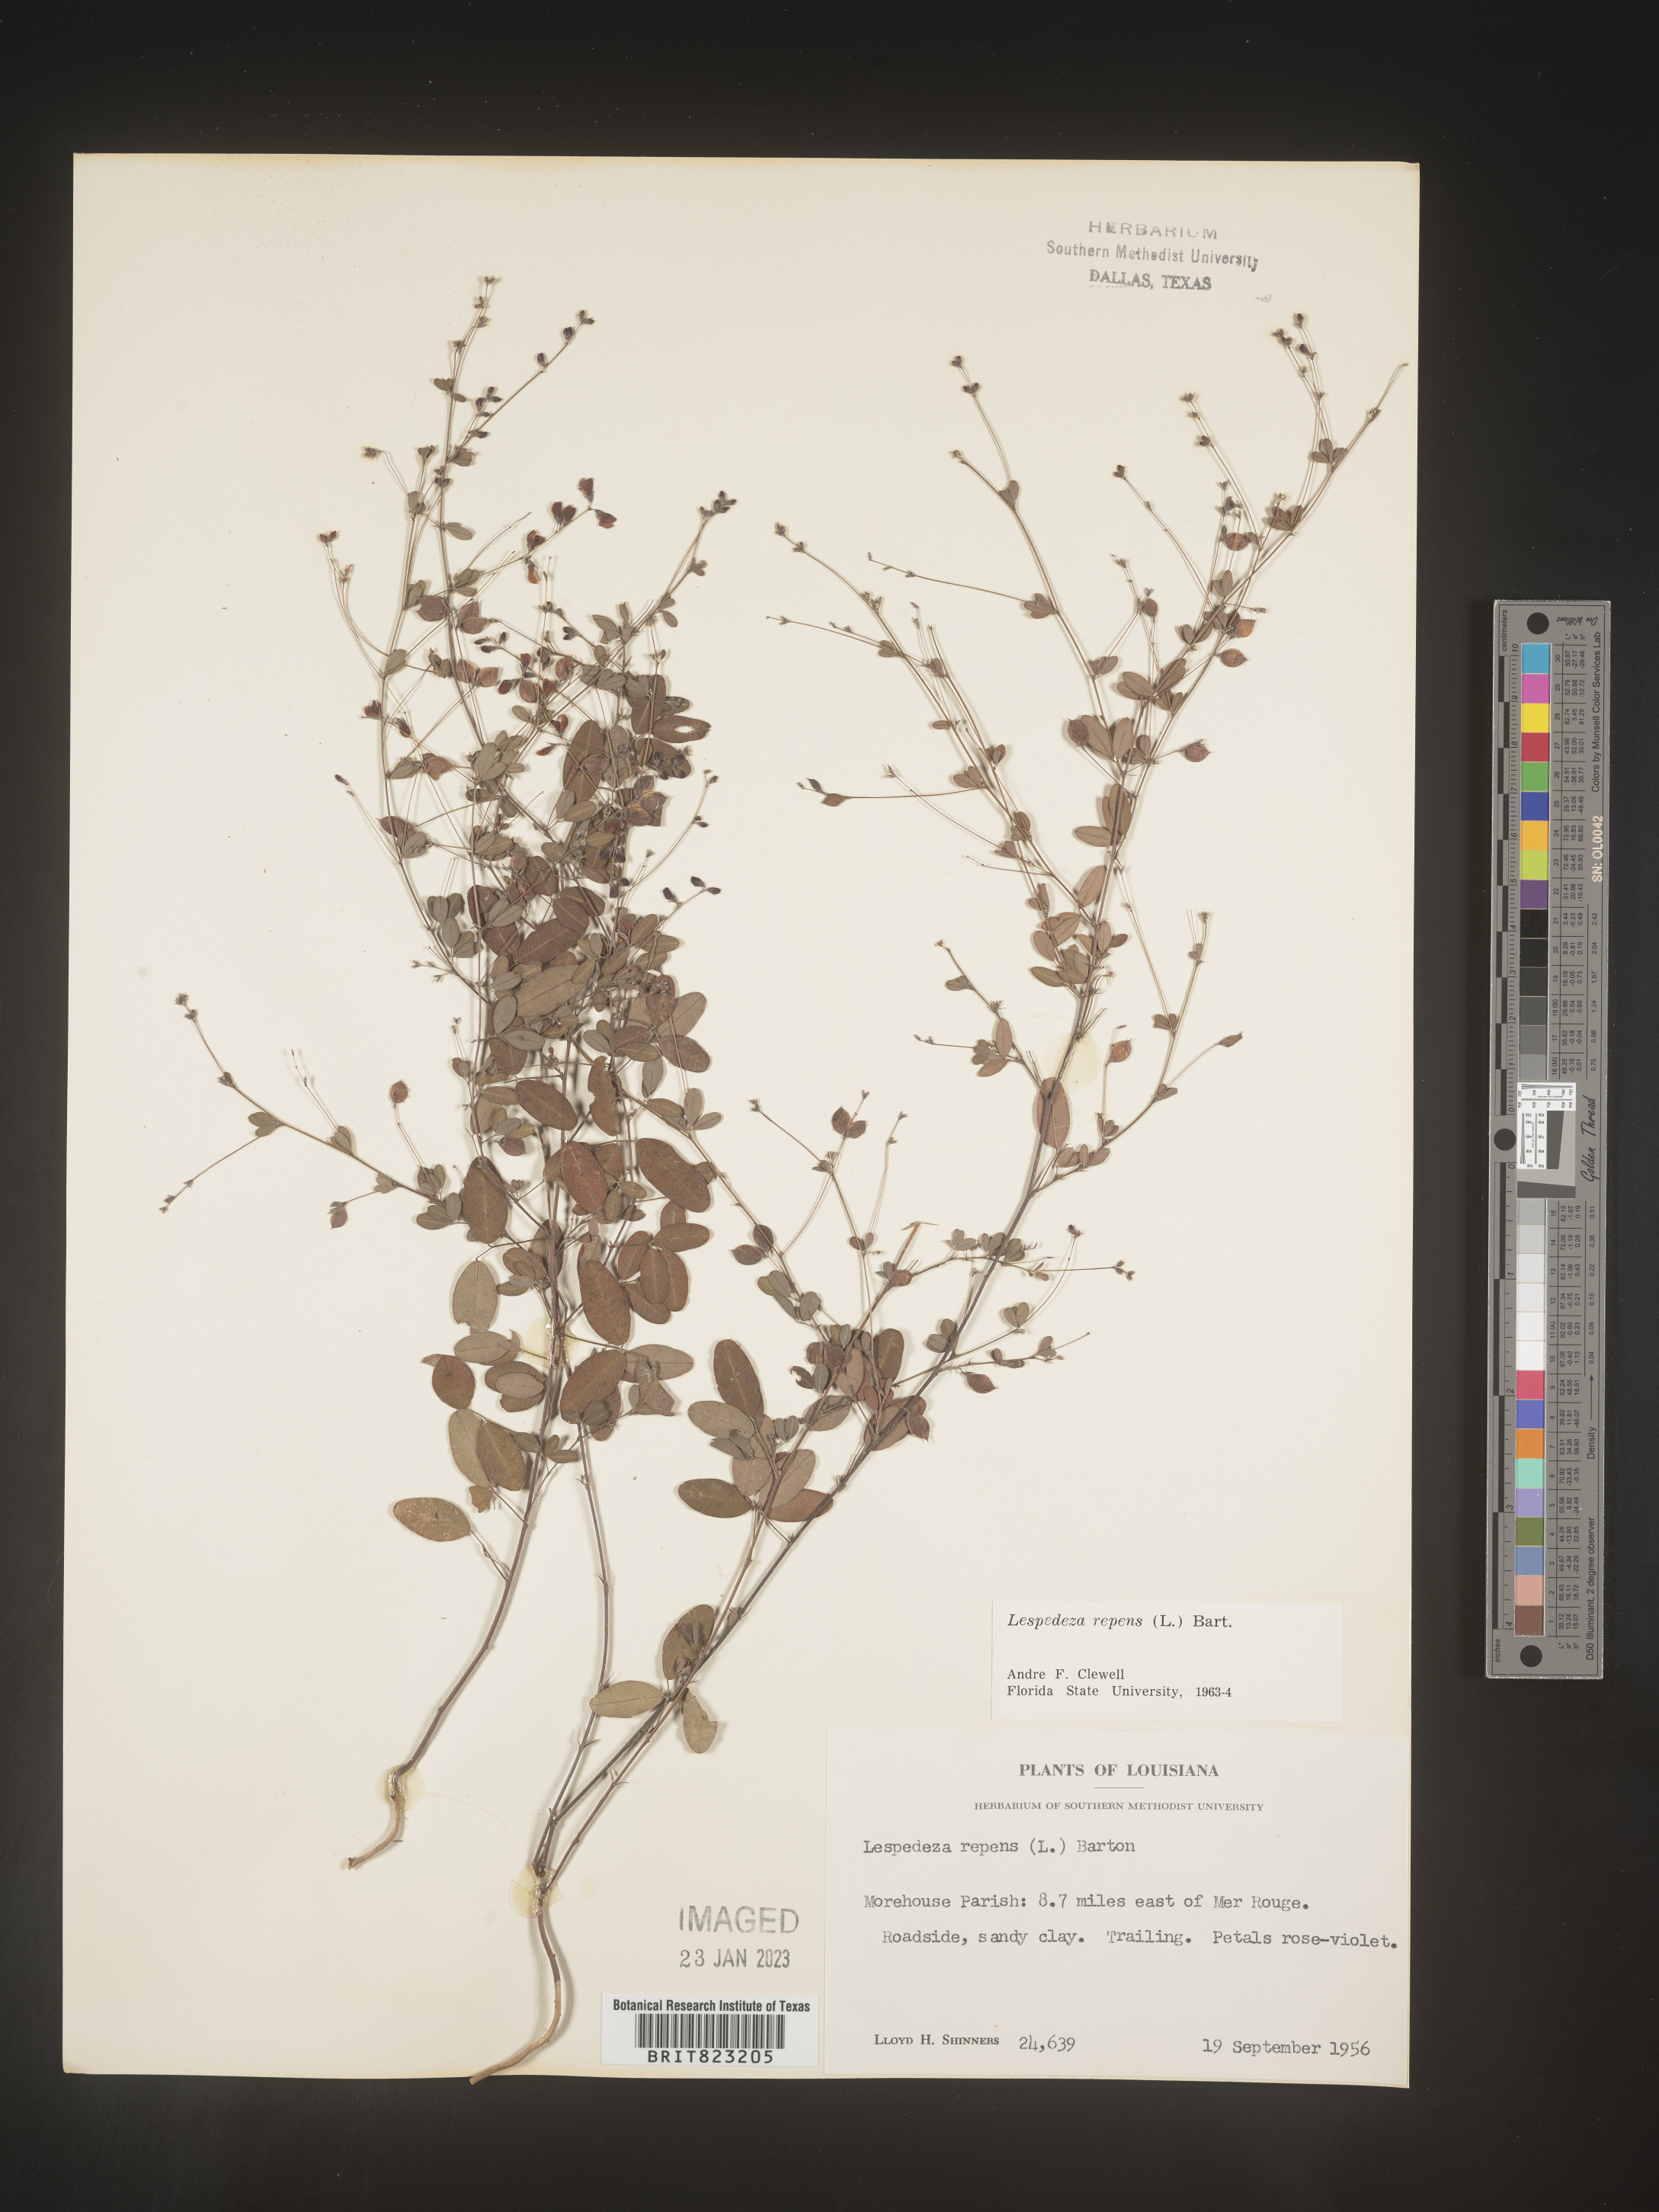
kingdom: Plantae
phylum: Tracheophyta
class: Magnoliopsida
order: Fabales
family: Fabaceae
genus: Lespedeza
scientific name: Lespedeza repens
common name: Creeping bush-clover
